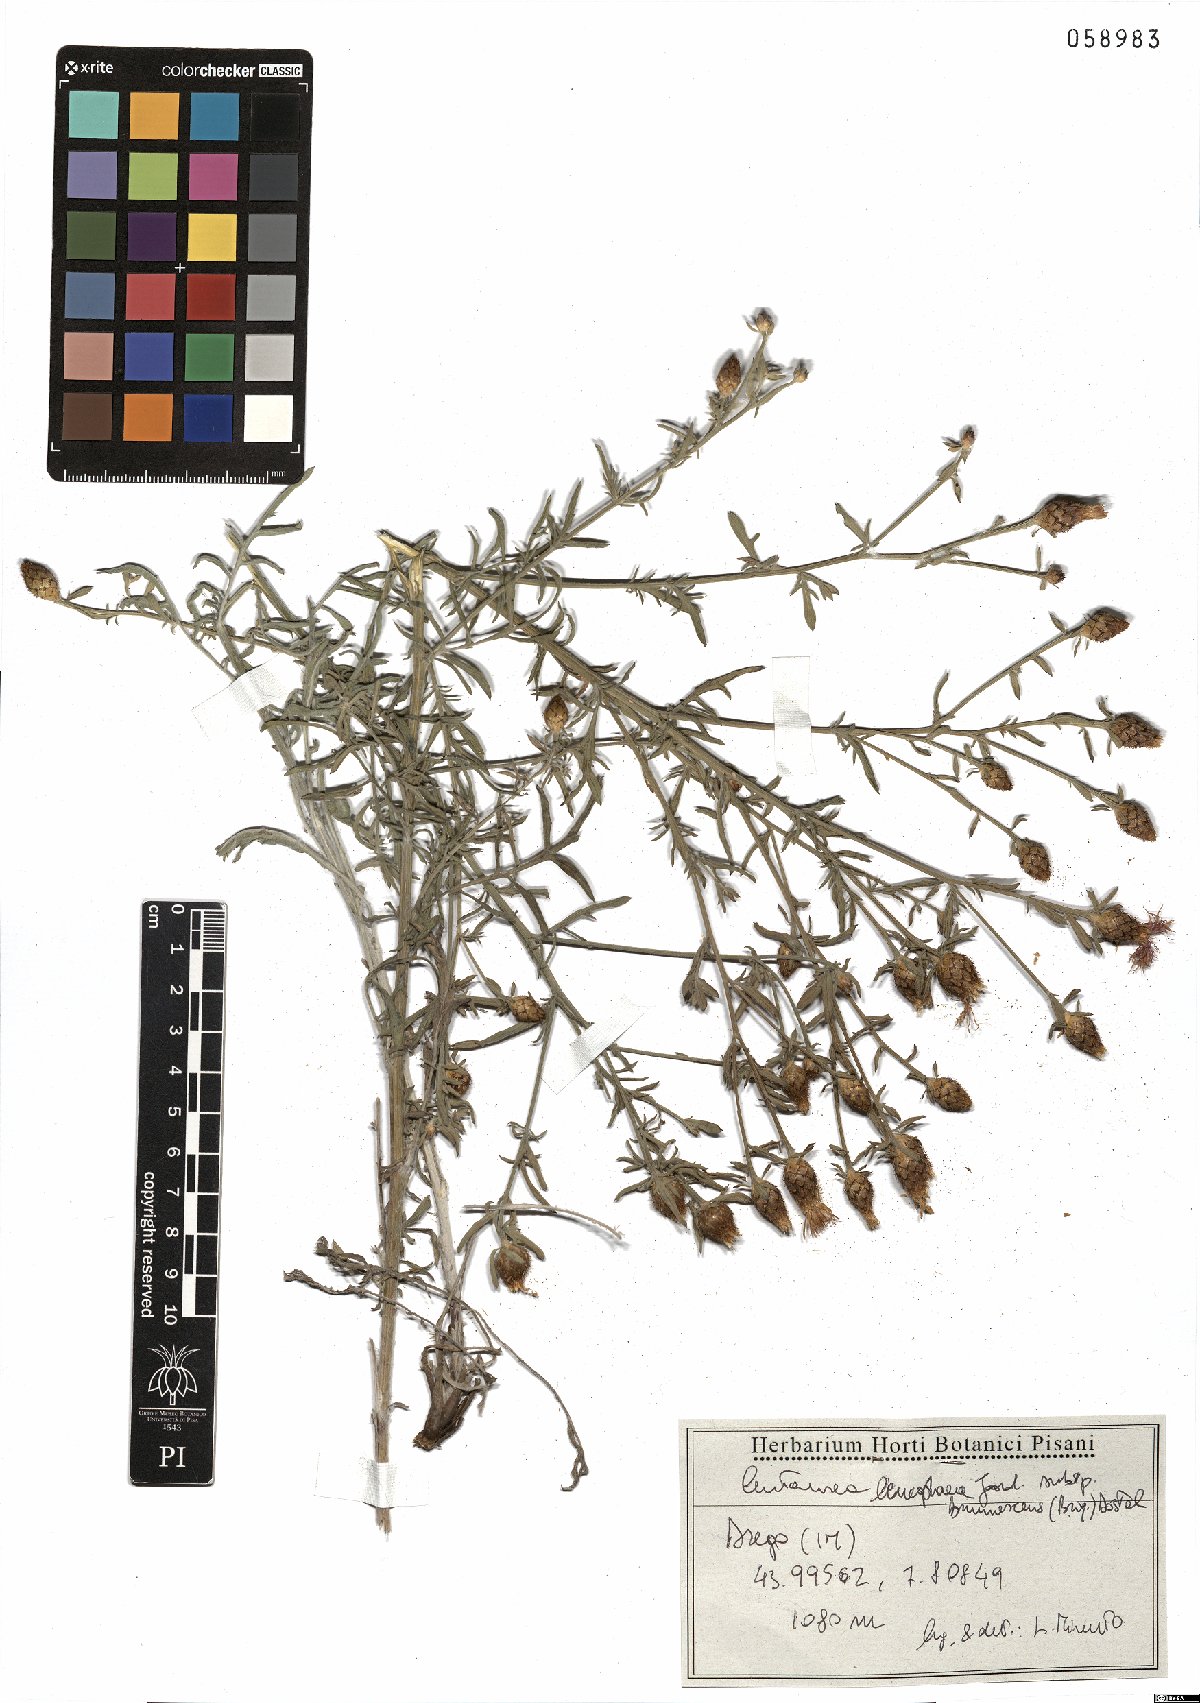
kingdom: Plantae
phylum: Tracheophyta
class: Magnoliopsida
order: Asterales
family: Asteraceae
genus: Centaurea
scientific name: Centaurea leucophaea
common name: Whitish-leaved knapweed
